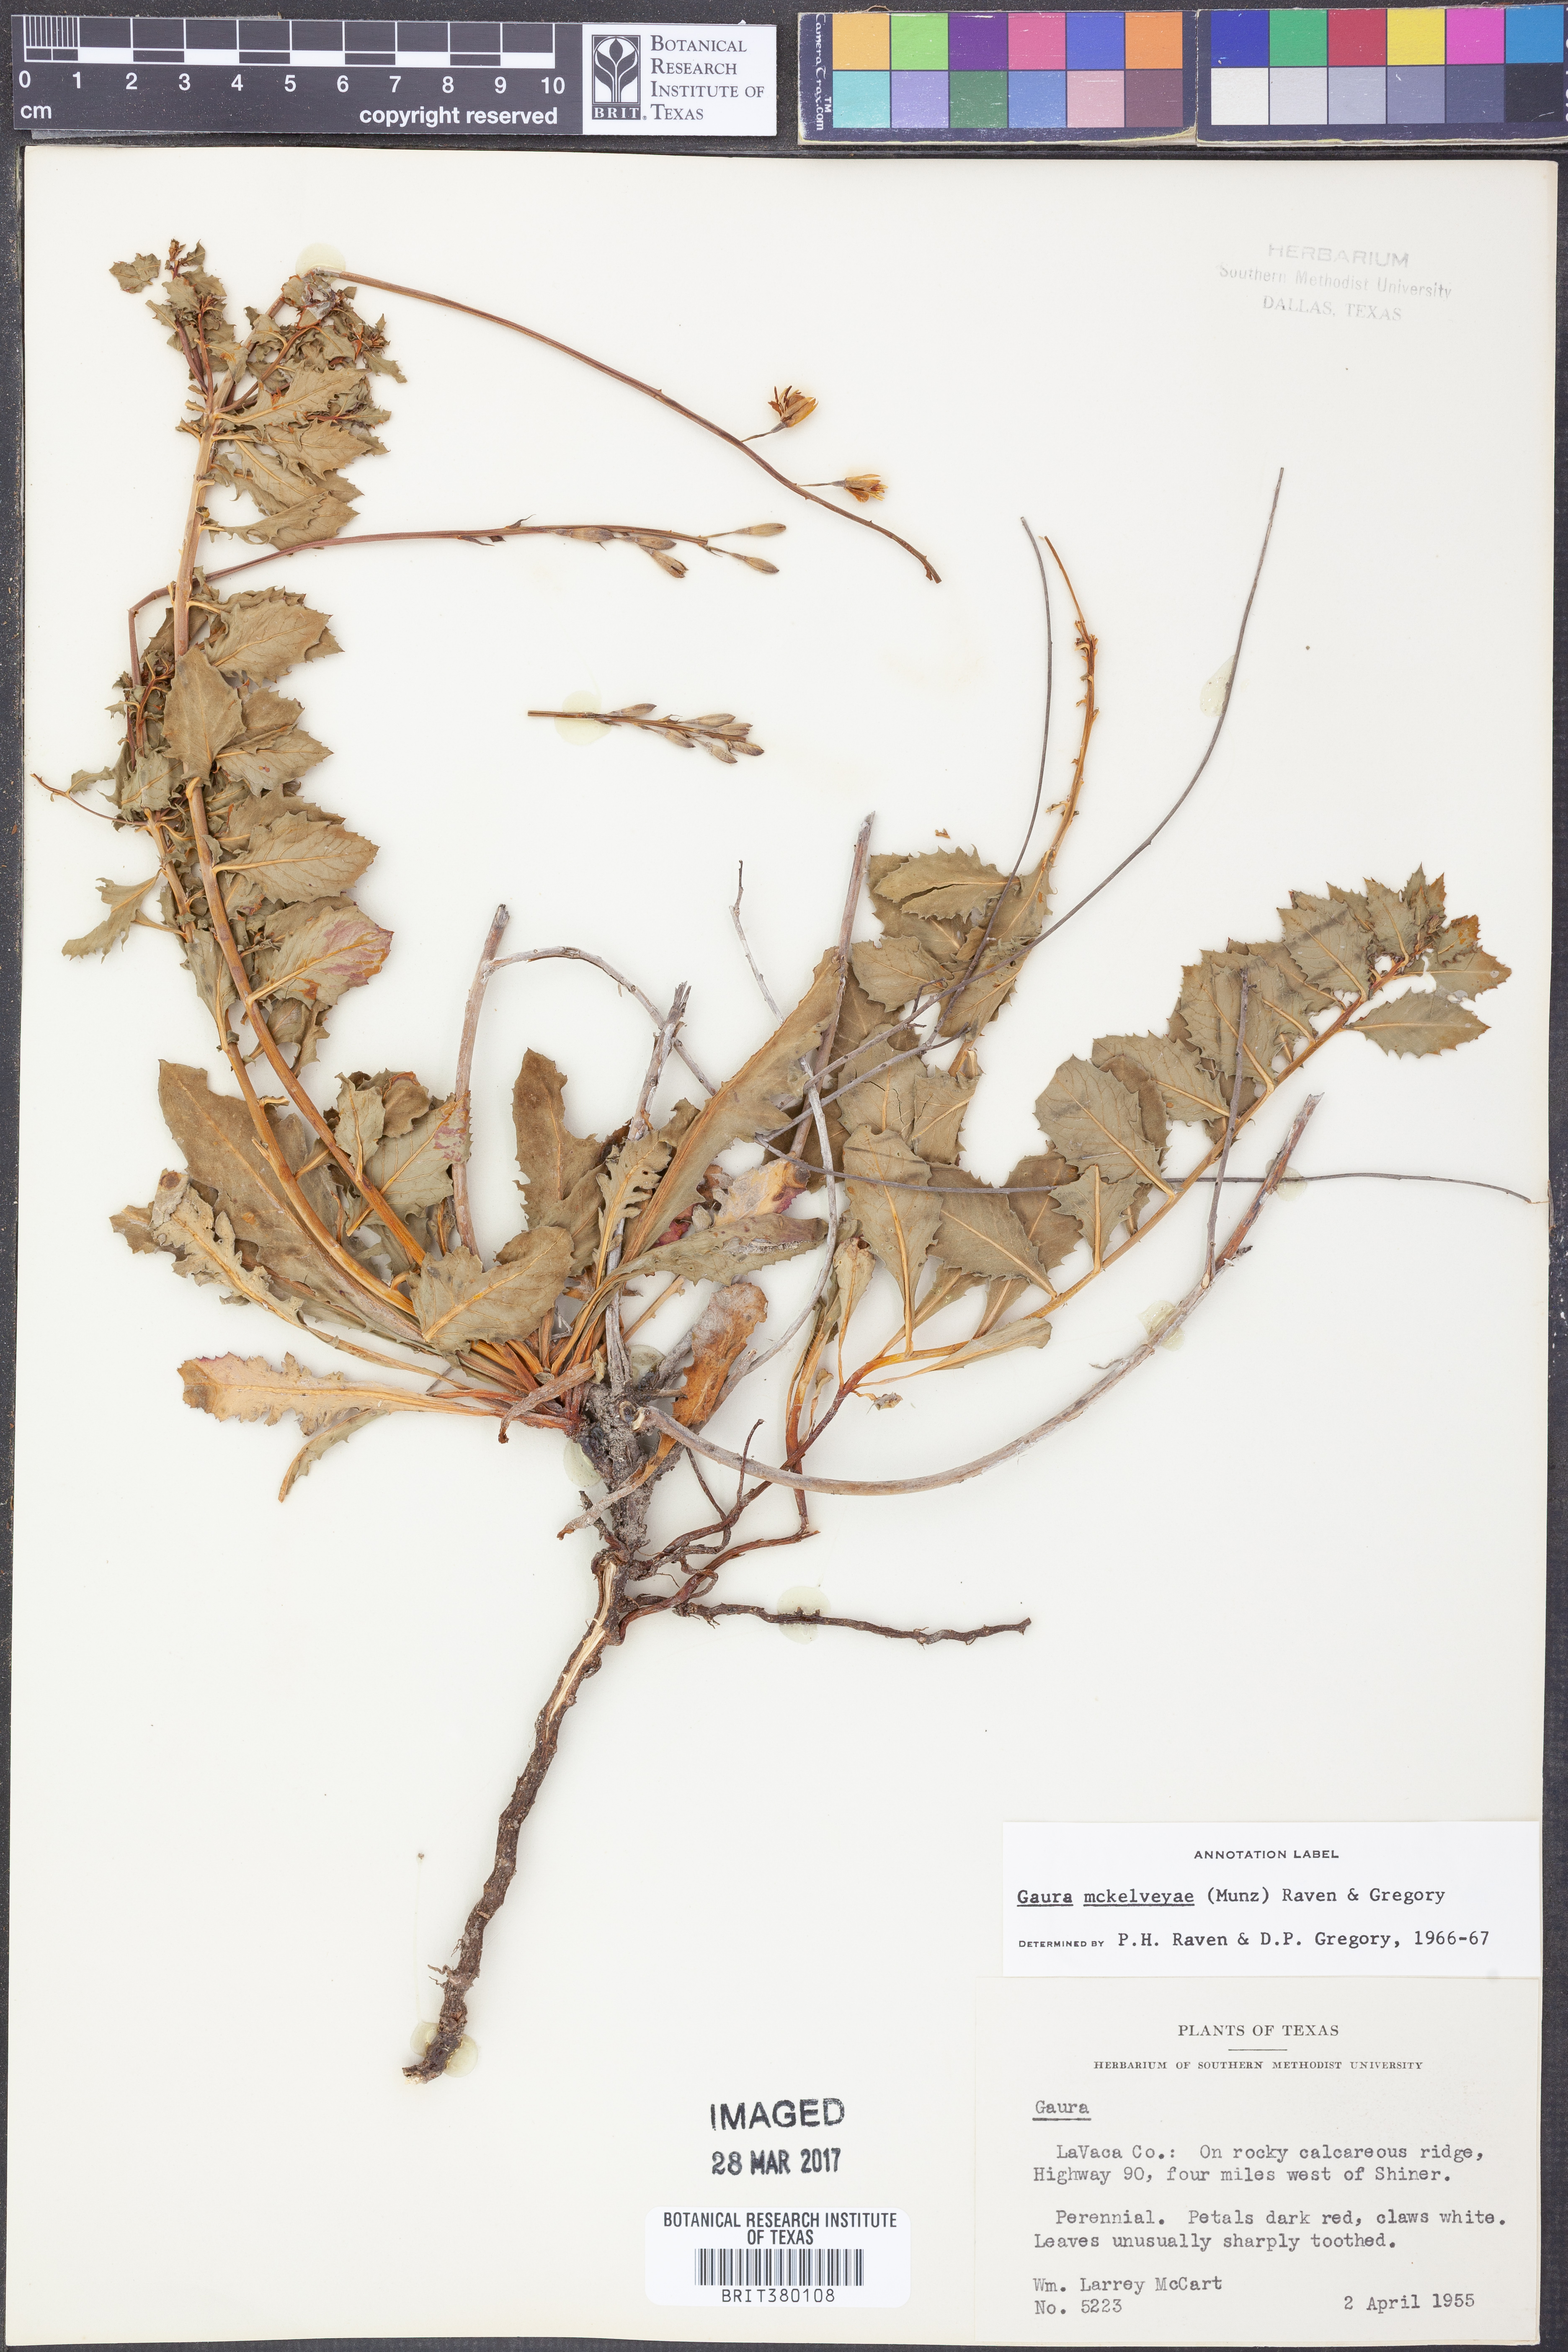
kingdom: Plantae
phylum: Tracheophyta
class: Magnoliopsida
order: Myrtales
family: Onagraceae
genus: Oenothera
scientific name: Oenothera mckelveyae
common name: Mckelvey's beeblossom
